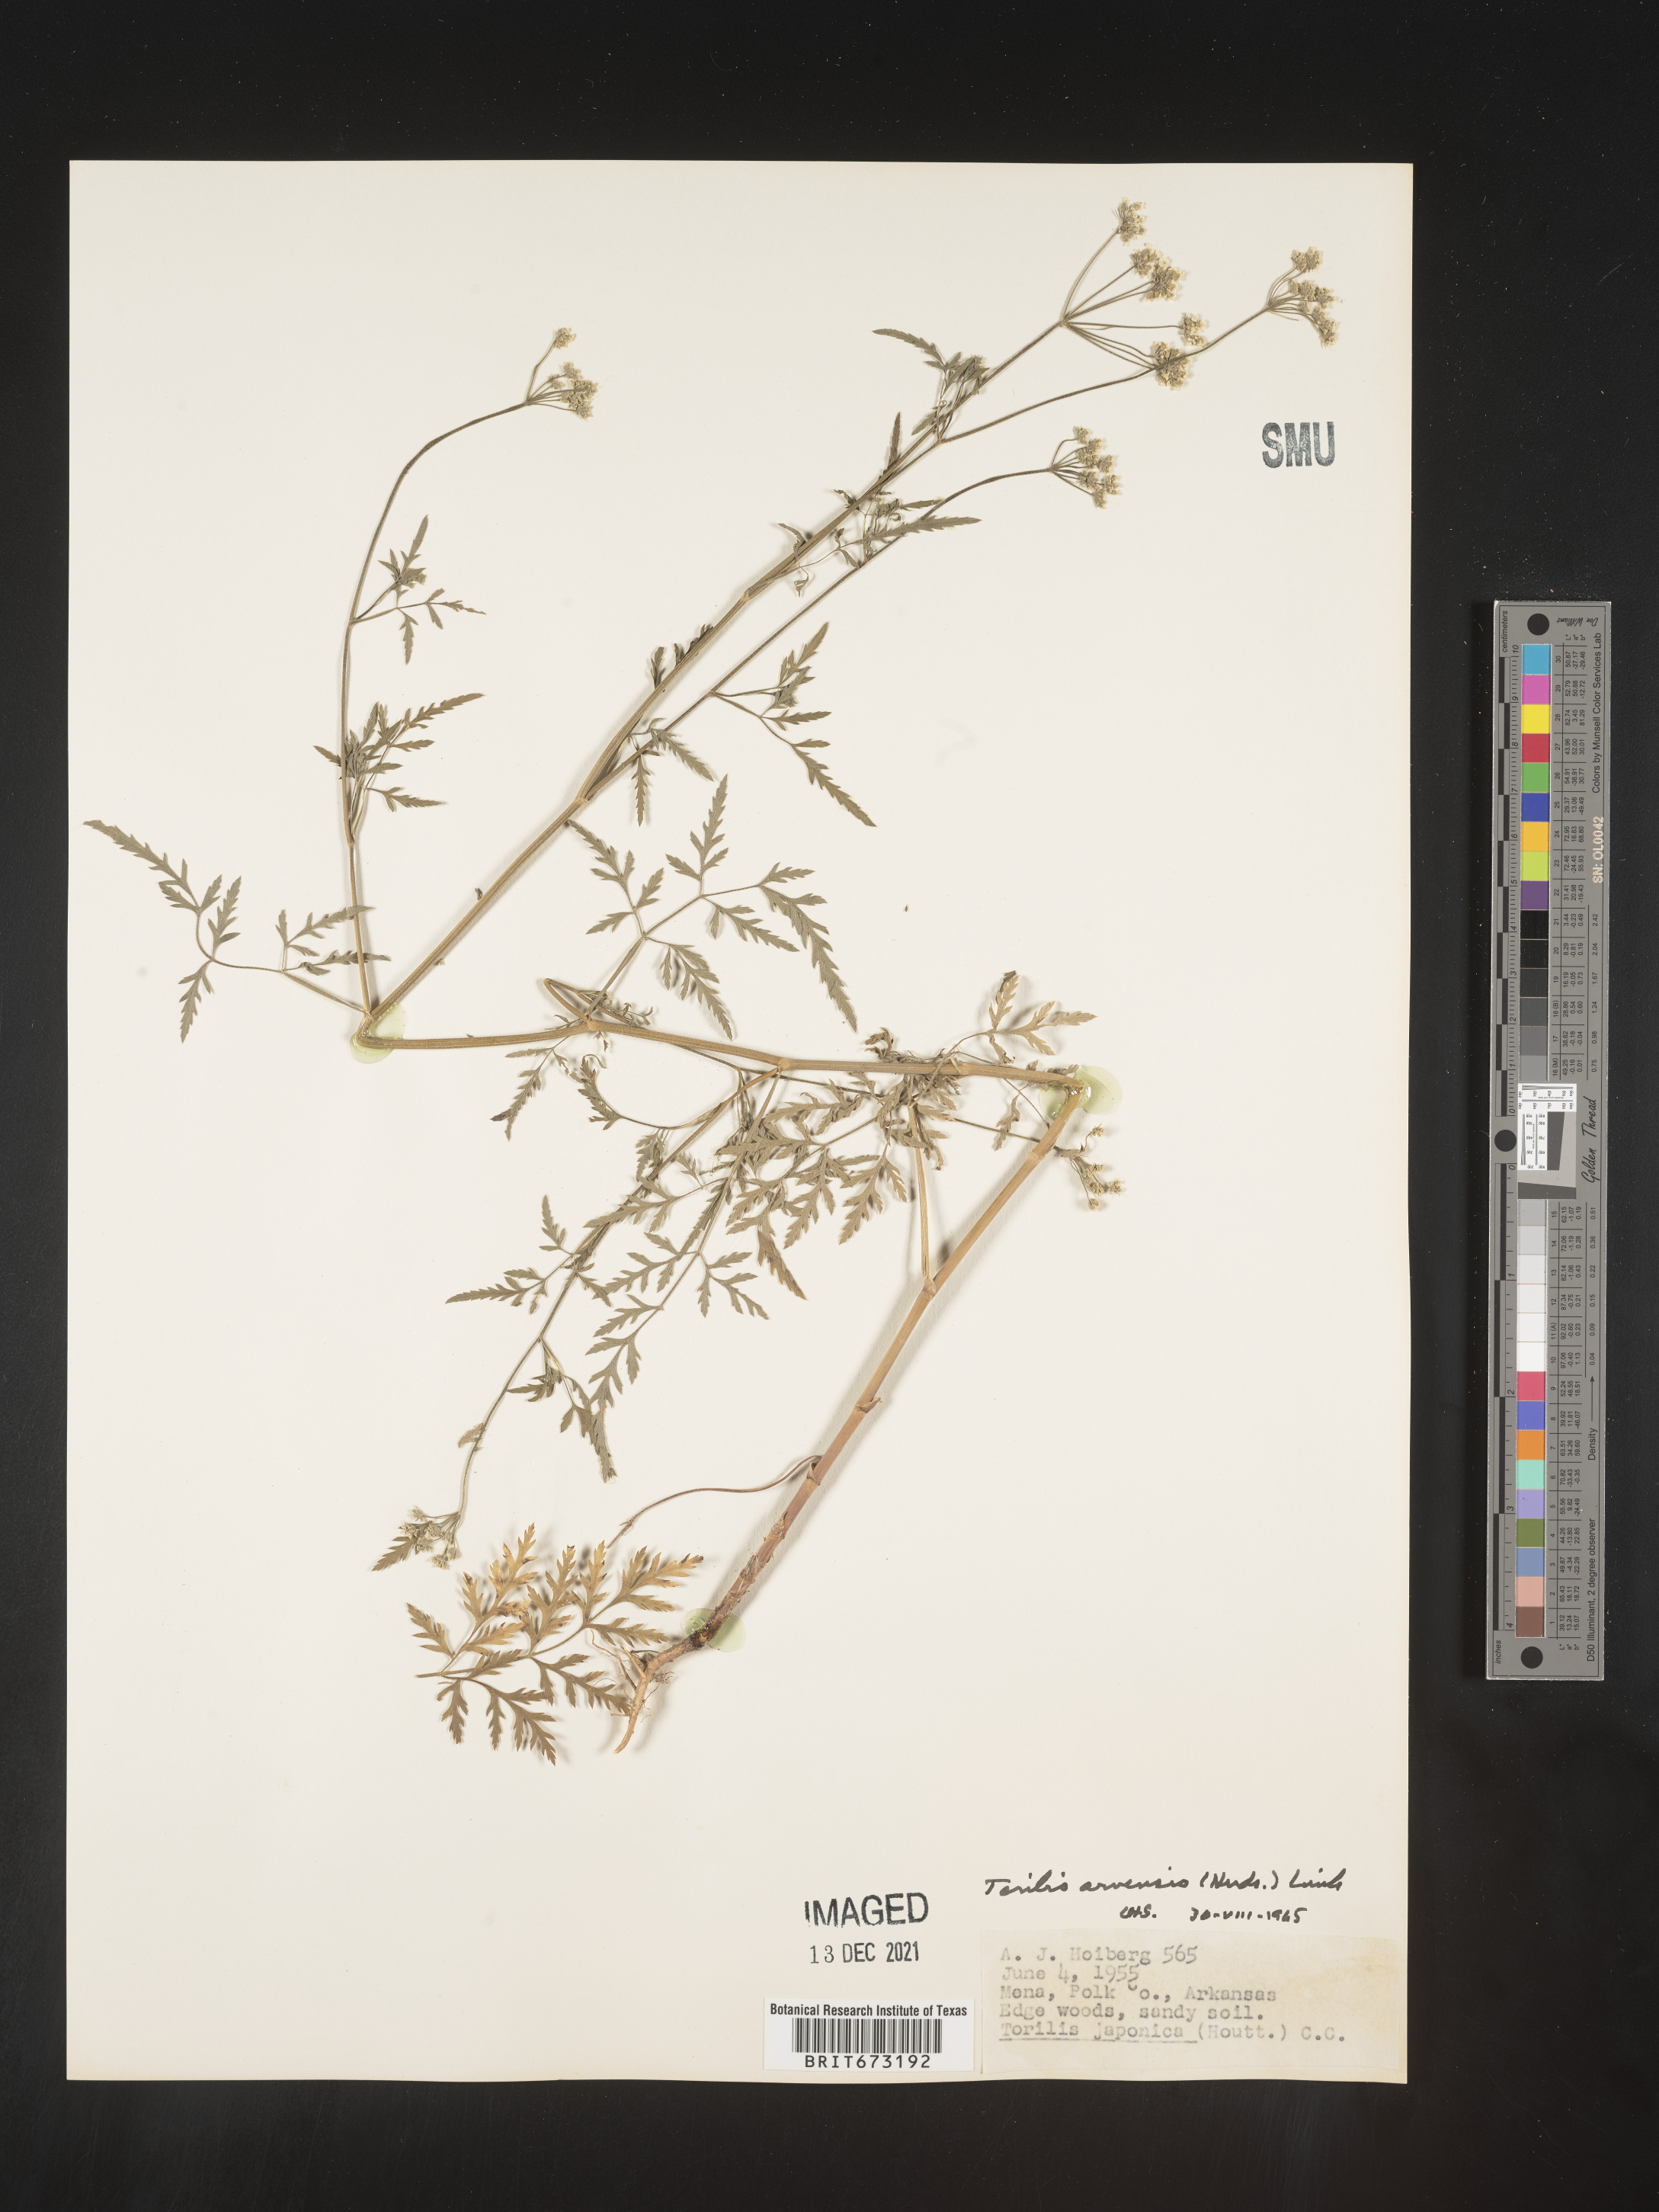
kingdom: Plantae
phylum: Tracheophyta
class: Magnoliopsida
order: Apiales
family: Apiaceae
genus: Torilis
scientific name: Torilis arvensis
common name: Spreading hedge-parsley
